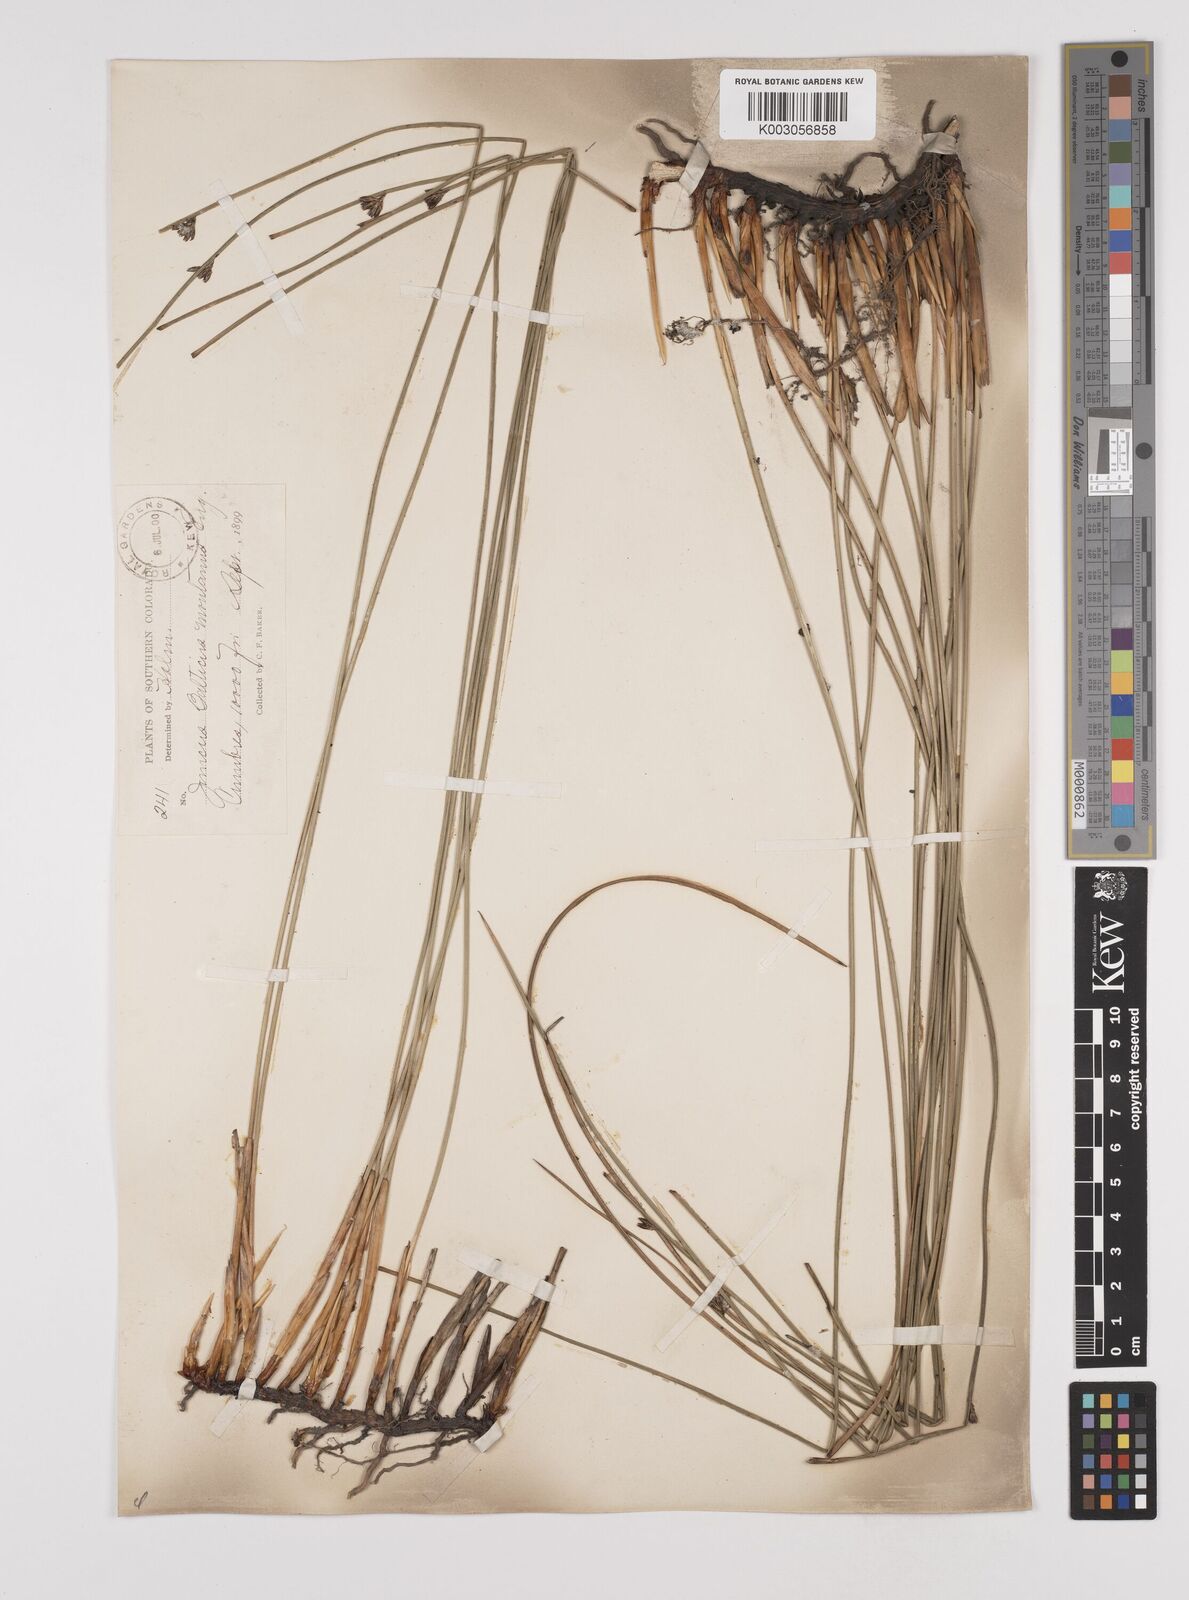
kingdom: Plantae
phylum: Tracheophyta
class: Liliopsida
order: Poales
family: Juncaceae
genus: Juncus
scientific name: Juncus balticus
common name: Baltic rush
